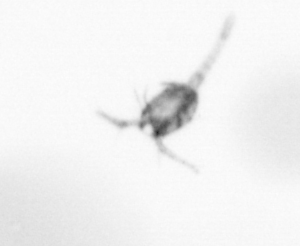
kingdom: Animalia
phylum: Arthropoda
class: Copepoda
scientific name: Copepoda
